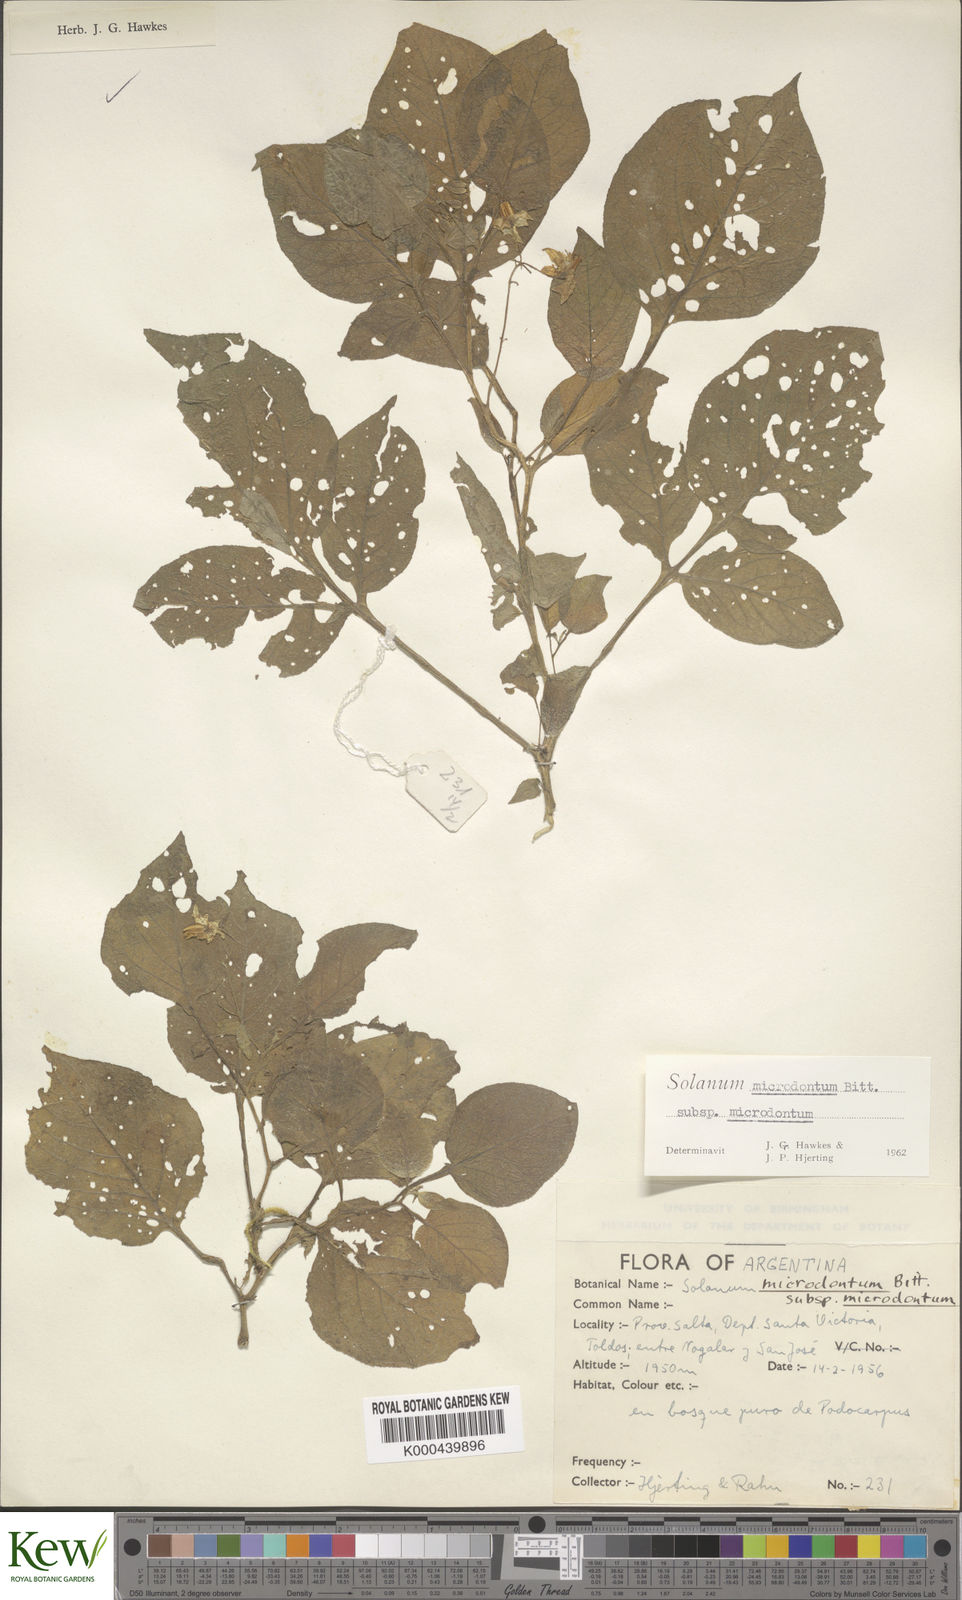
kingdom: Plantae
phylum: Tracheophyta
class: Magnoliopsida
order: Solanales
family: Solanaceae
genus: Solanum
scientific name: Solanum microdontum
